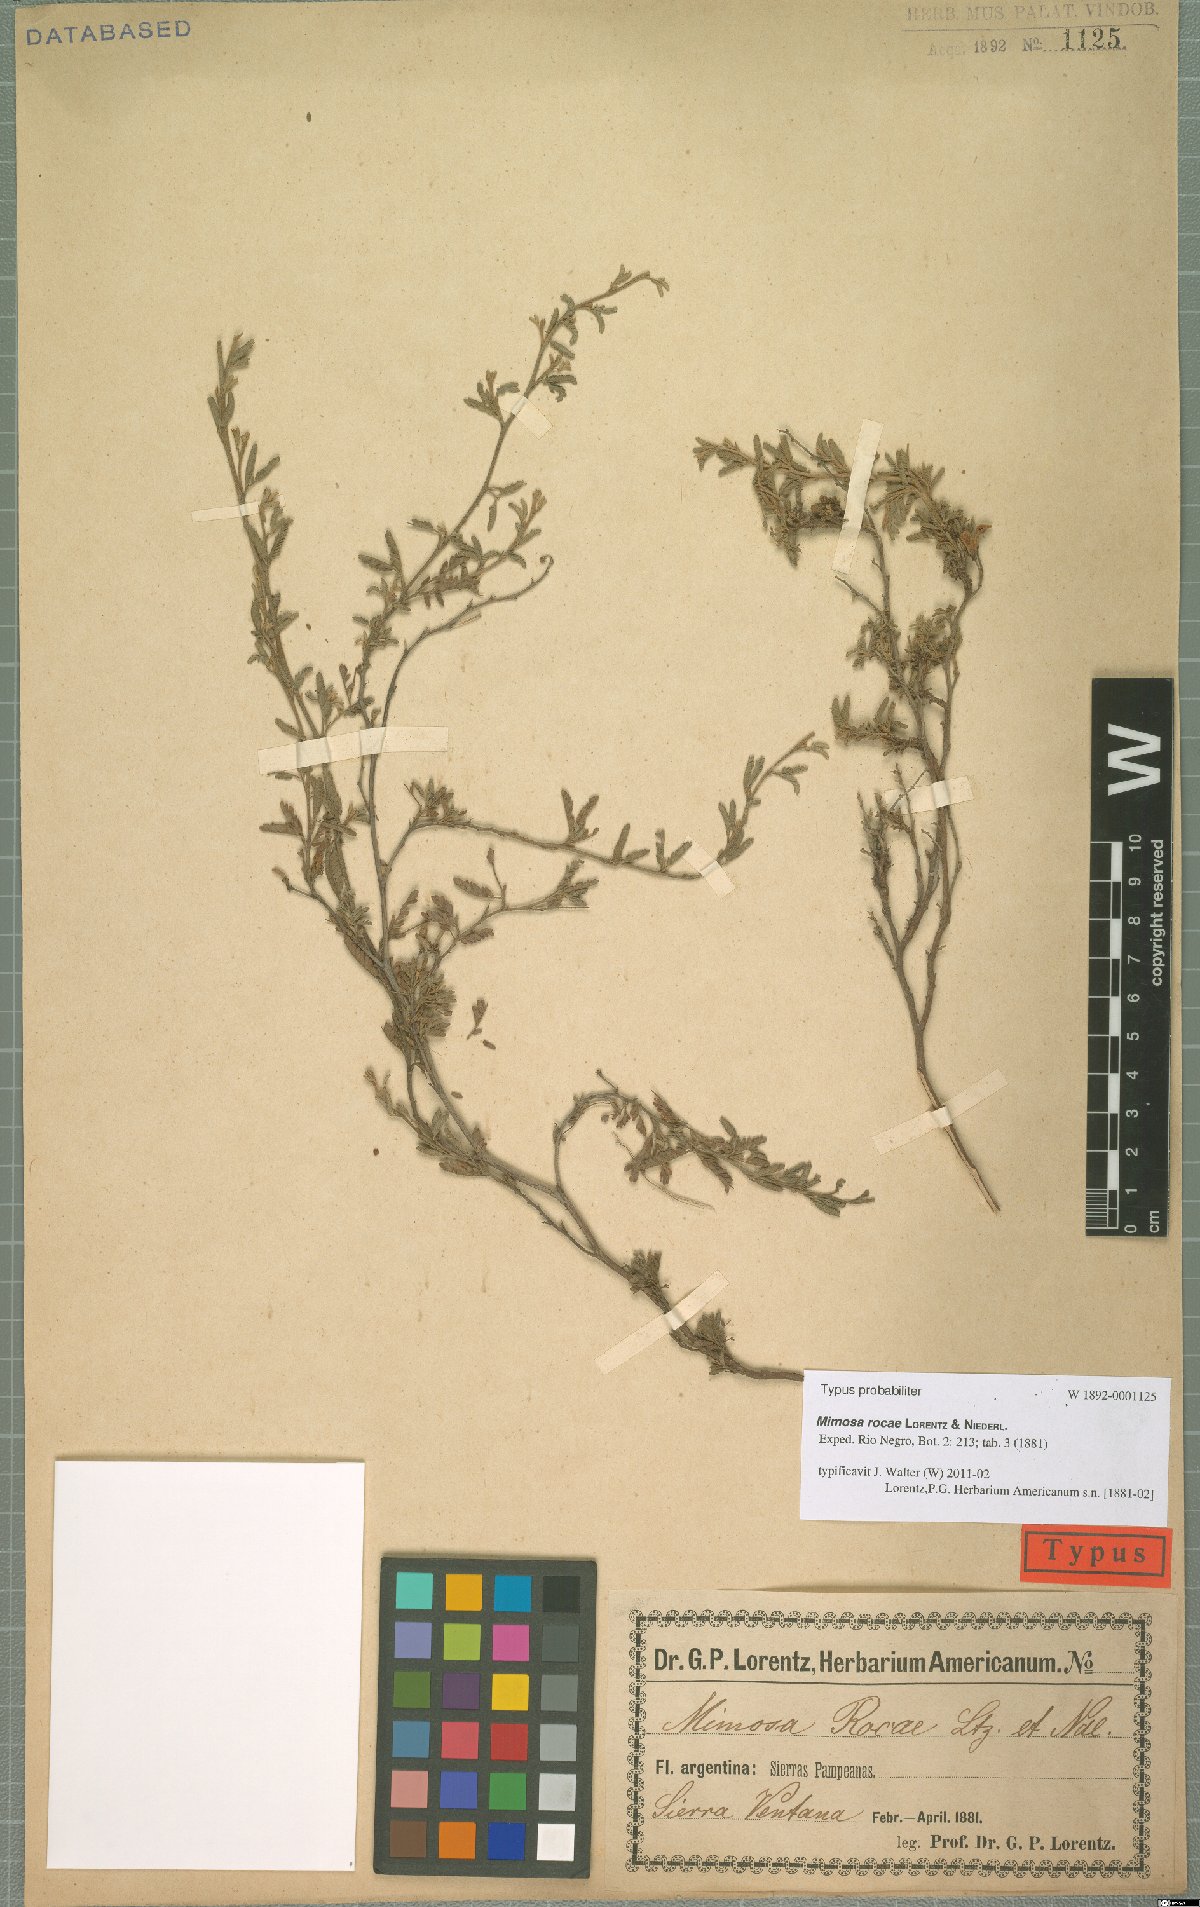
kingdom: Plantae
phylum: Tracheophyta
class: Magnoliopsida
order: Fabales
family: Fabaceae
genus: Mimosa
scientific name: Mimosa rocae
